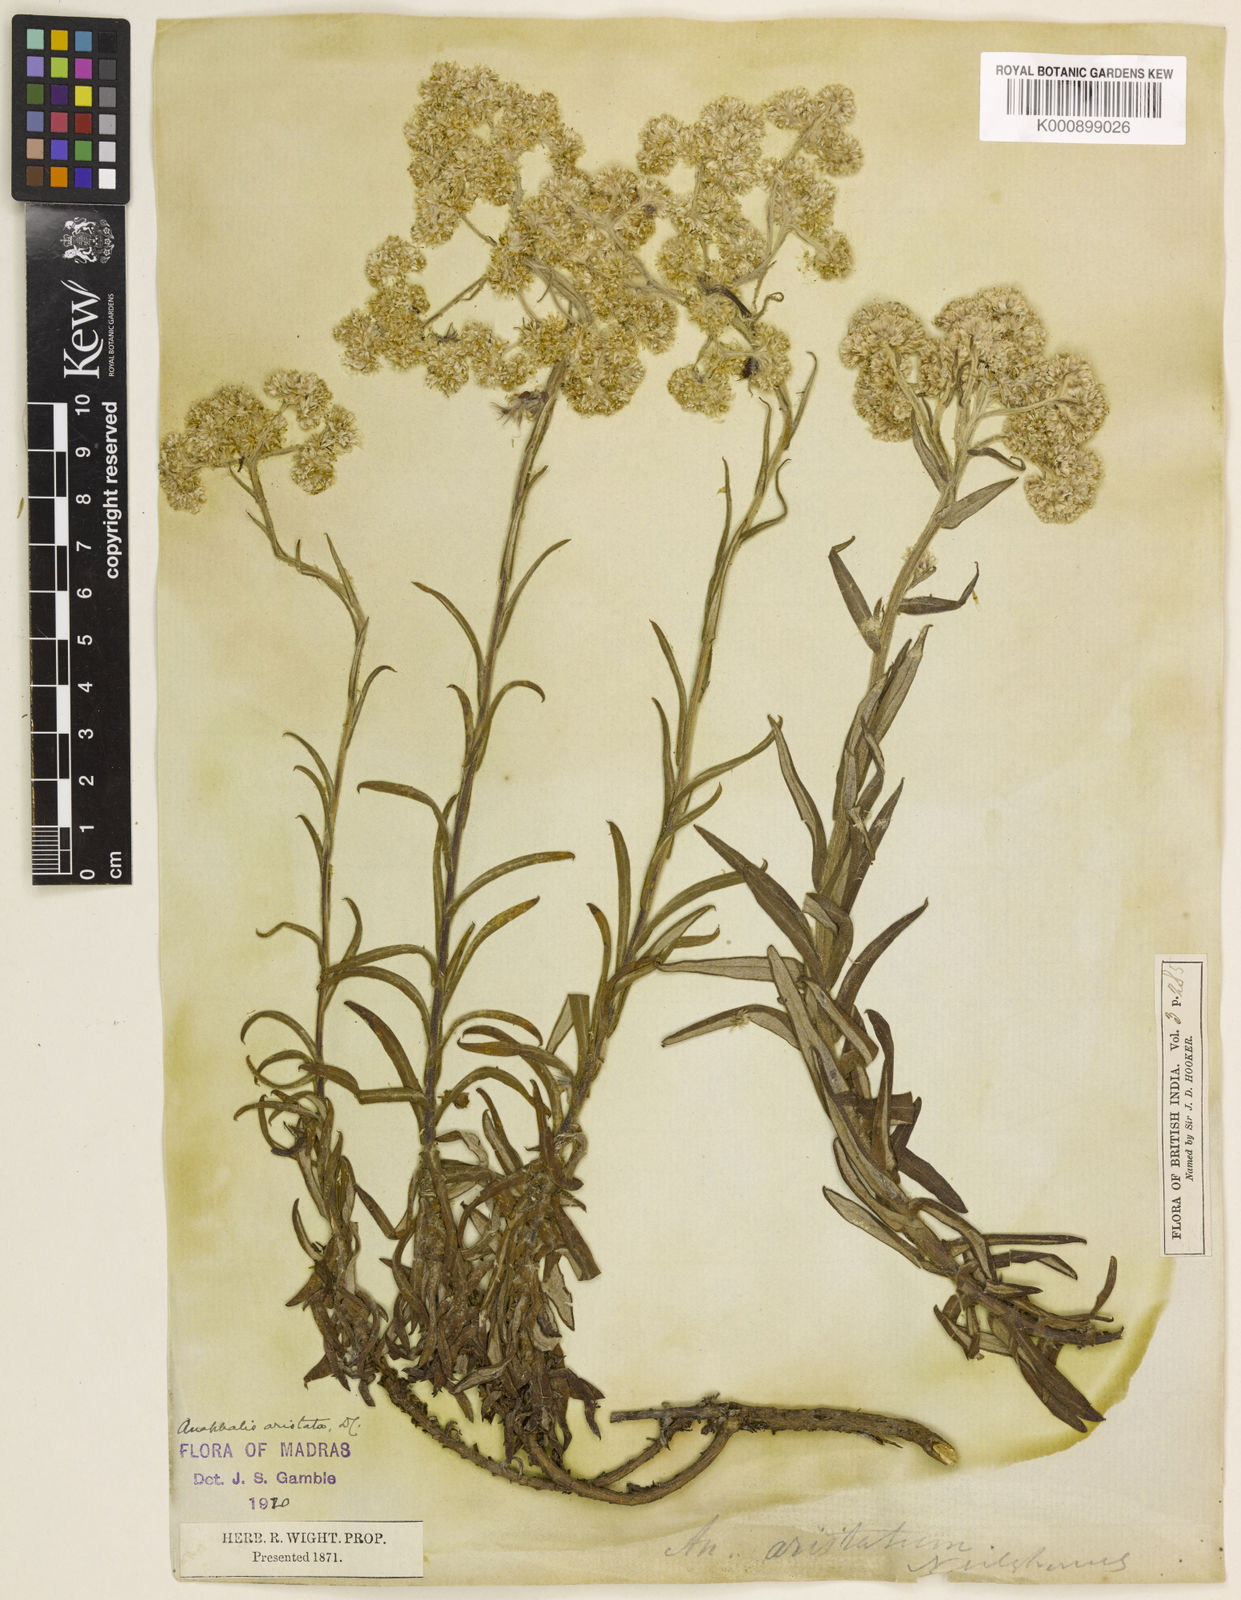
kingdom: Plantae
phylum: Tracheophyta
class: Magnoliopsida
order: Asterales
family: Asteraceae
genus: Anaphalis
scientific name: Anaphalis aristata
